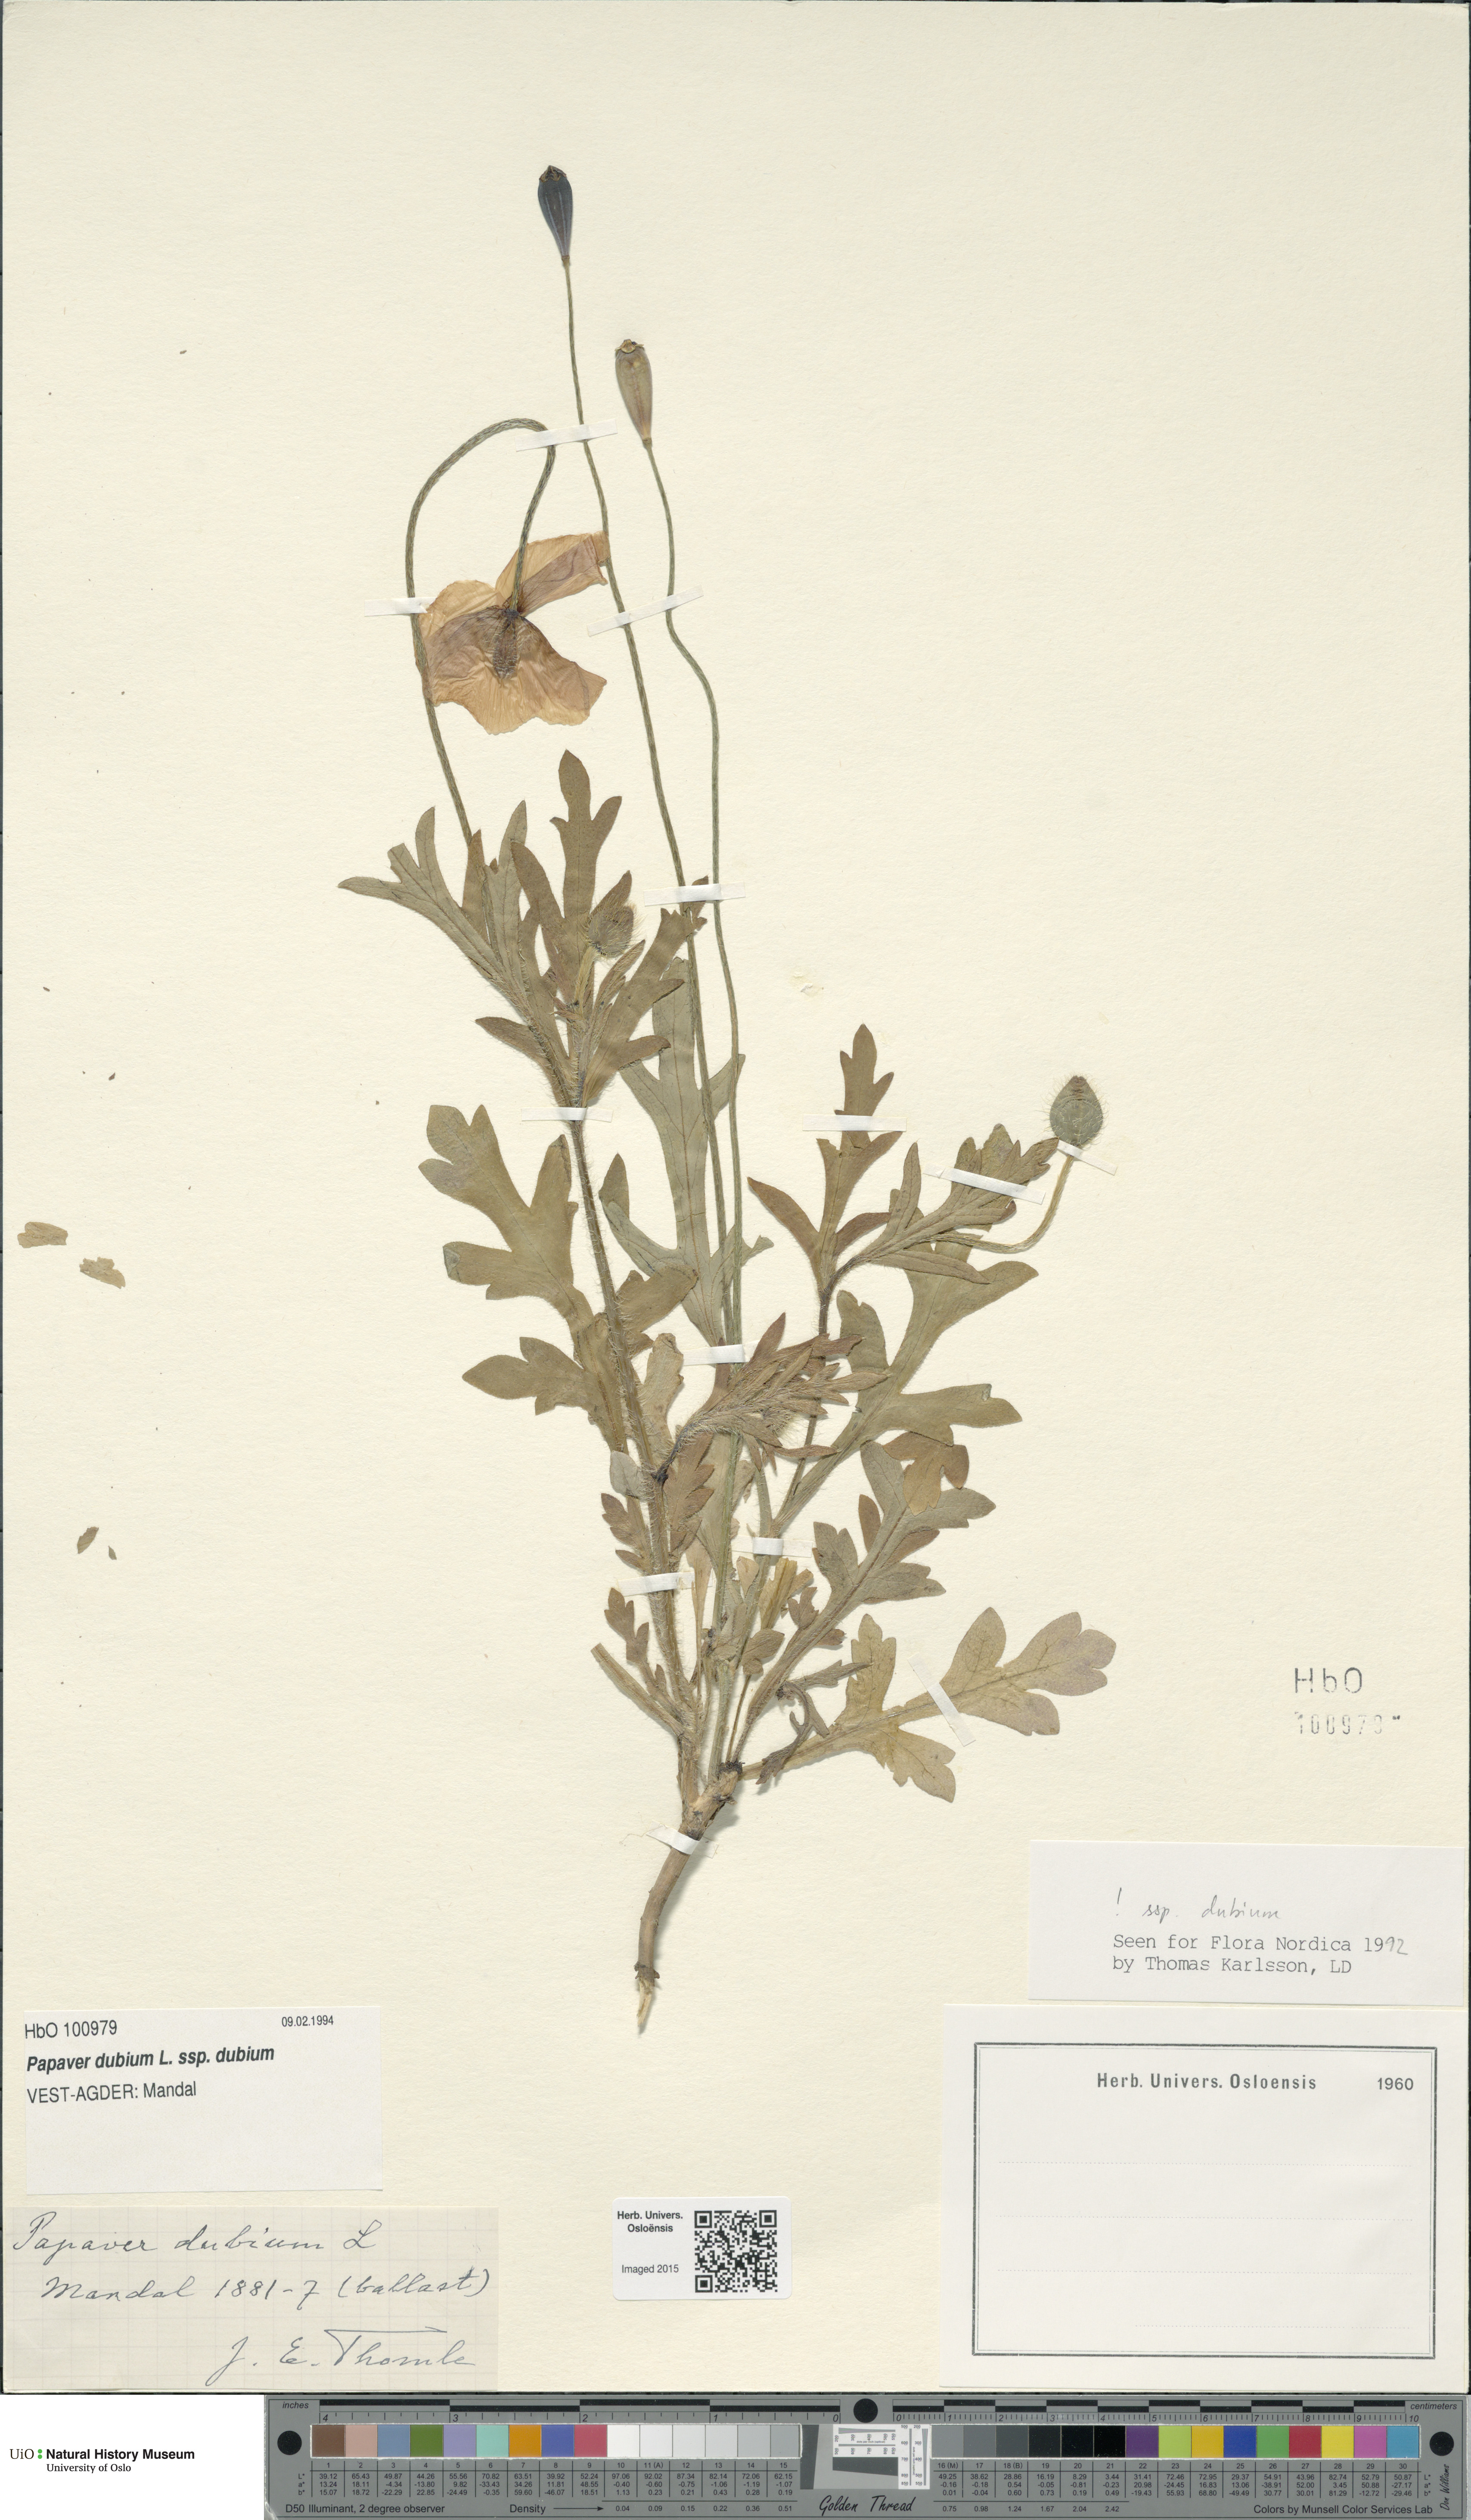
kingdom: Plantae
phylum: Tracheophyta
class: Magnoliopsida
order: Ranunculales
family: Papaveraceae
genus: Papaver
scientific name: Papaver dubium
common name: Long-headed poppy
